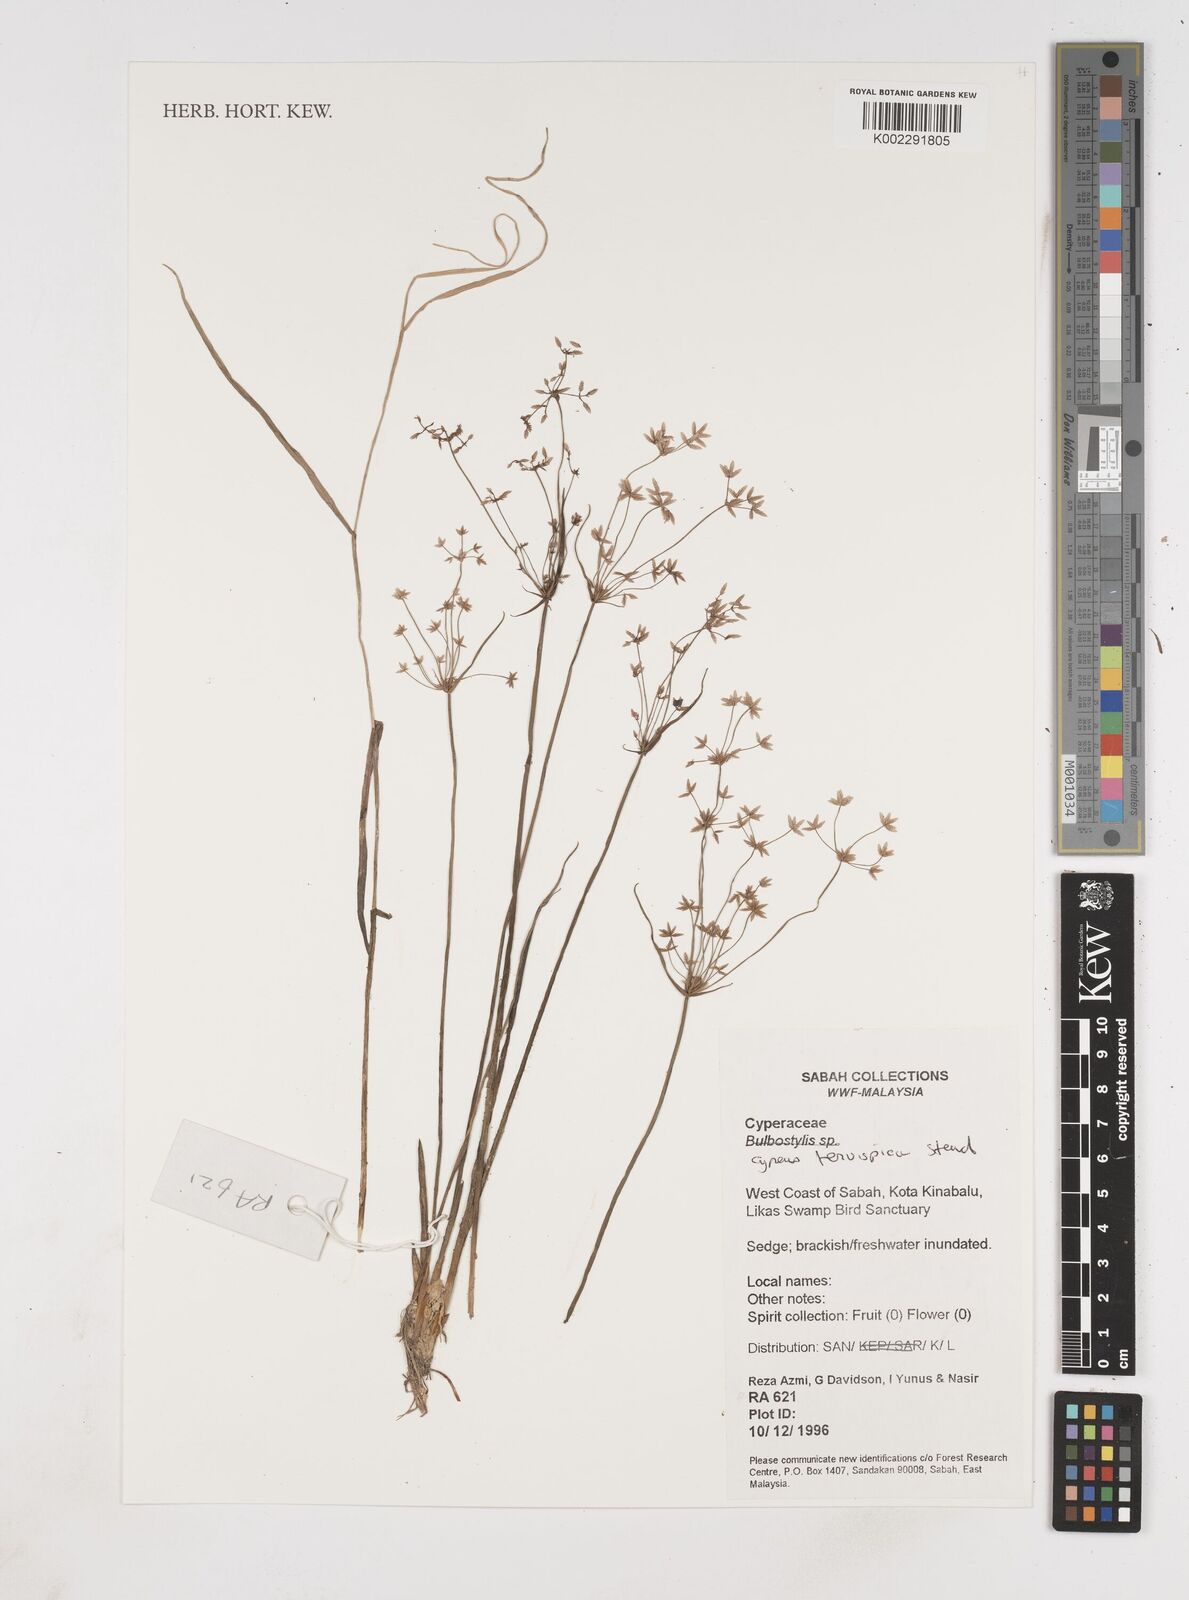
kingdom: Plantae
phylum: Tracheophyta
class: Liliopsida
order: Poales
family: Cyperaceae
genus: Cyperus
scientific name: Cyperus tenuispica
